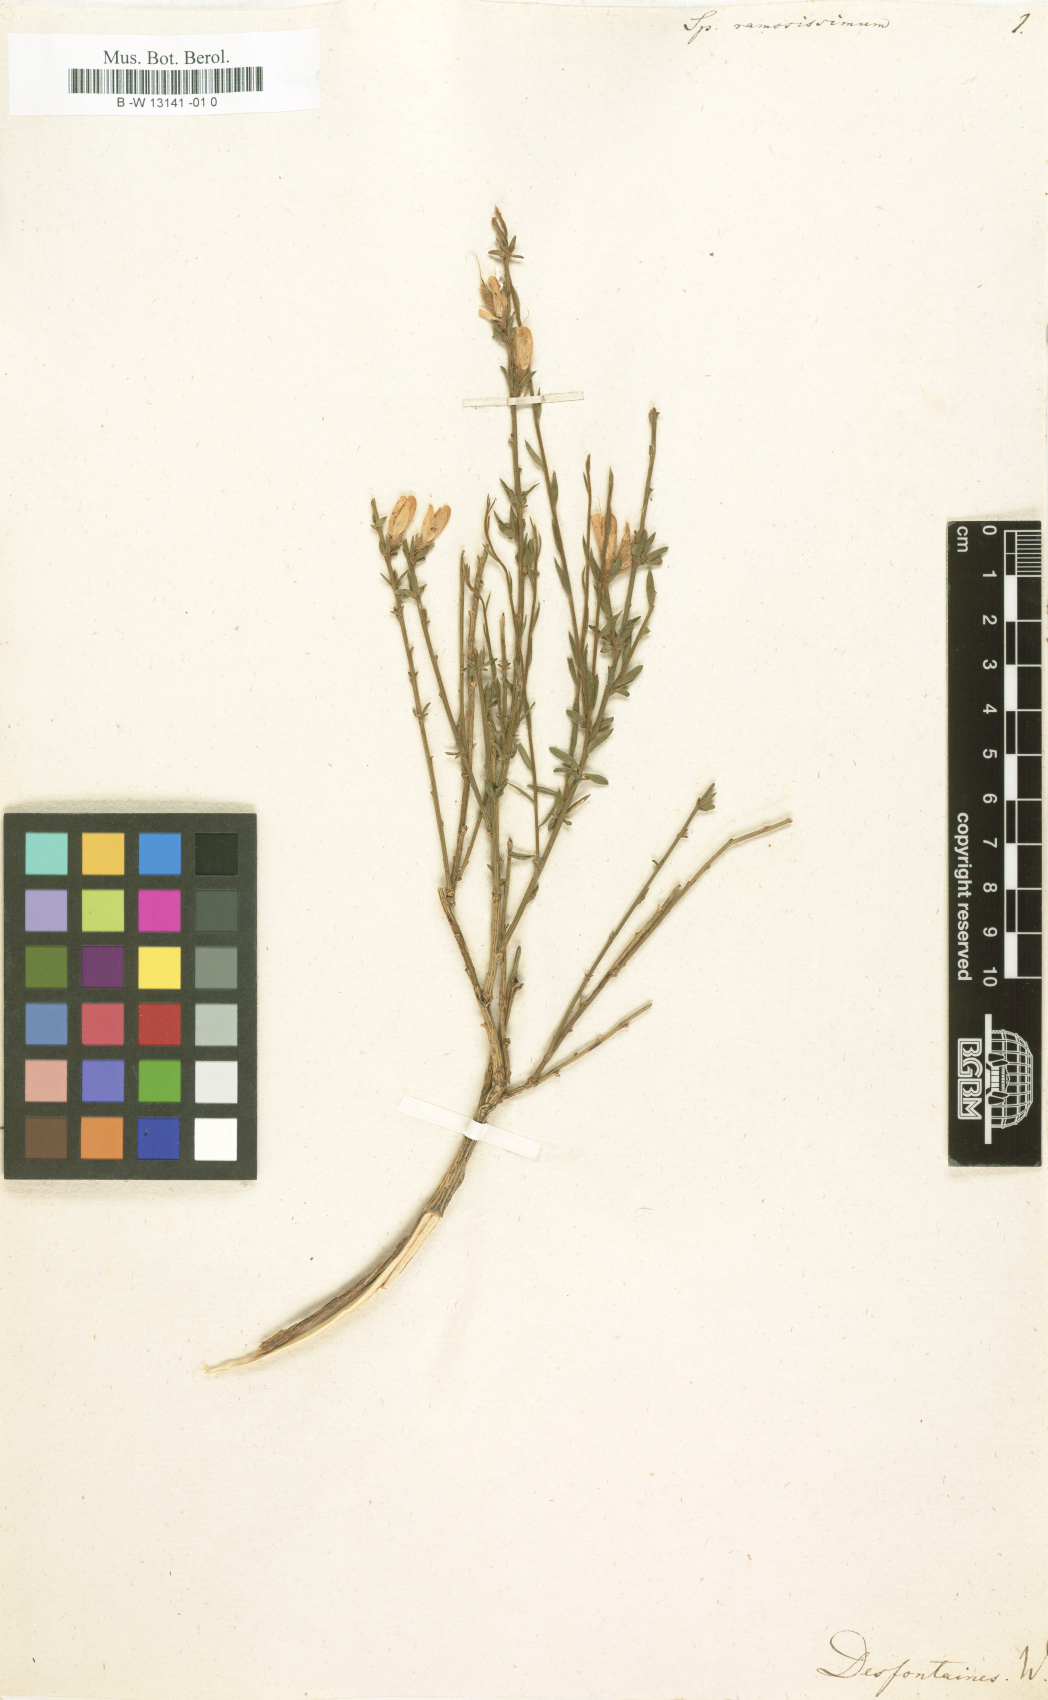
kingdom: Plantae
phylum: Tracheophyta
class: Magnoliopsida
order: Fabales
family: Fabaceae
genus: Genista
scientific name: Genista ramosissima
